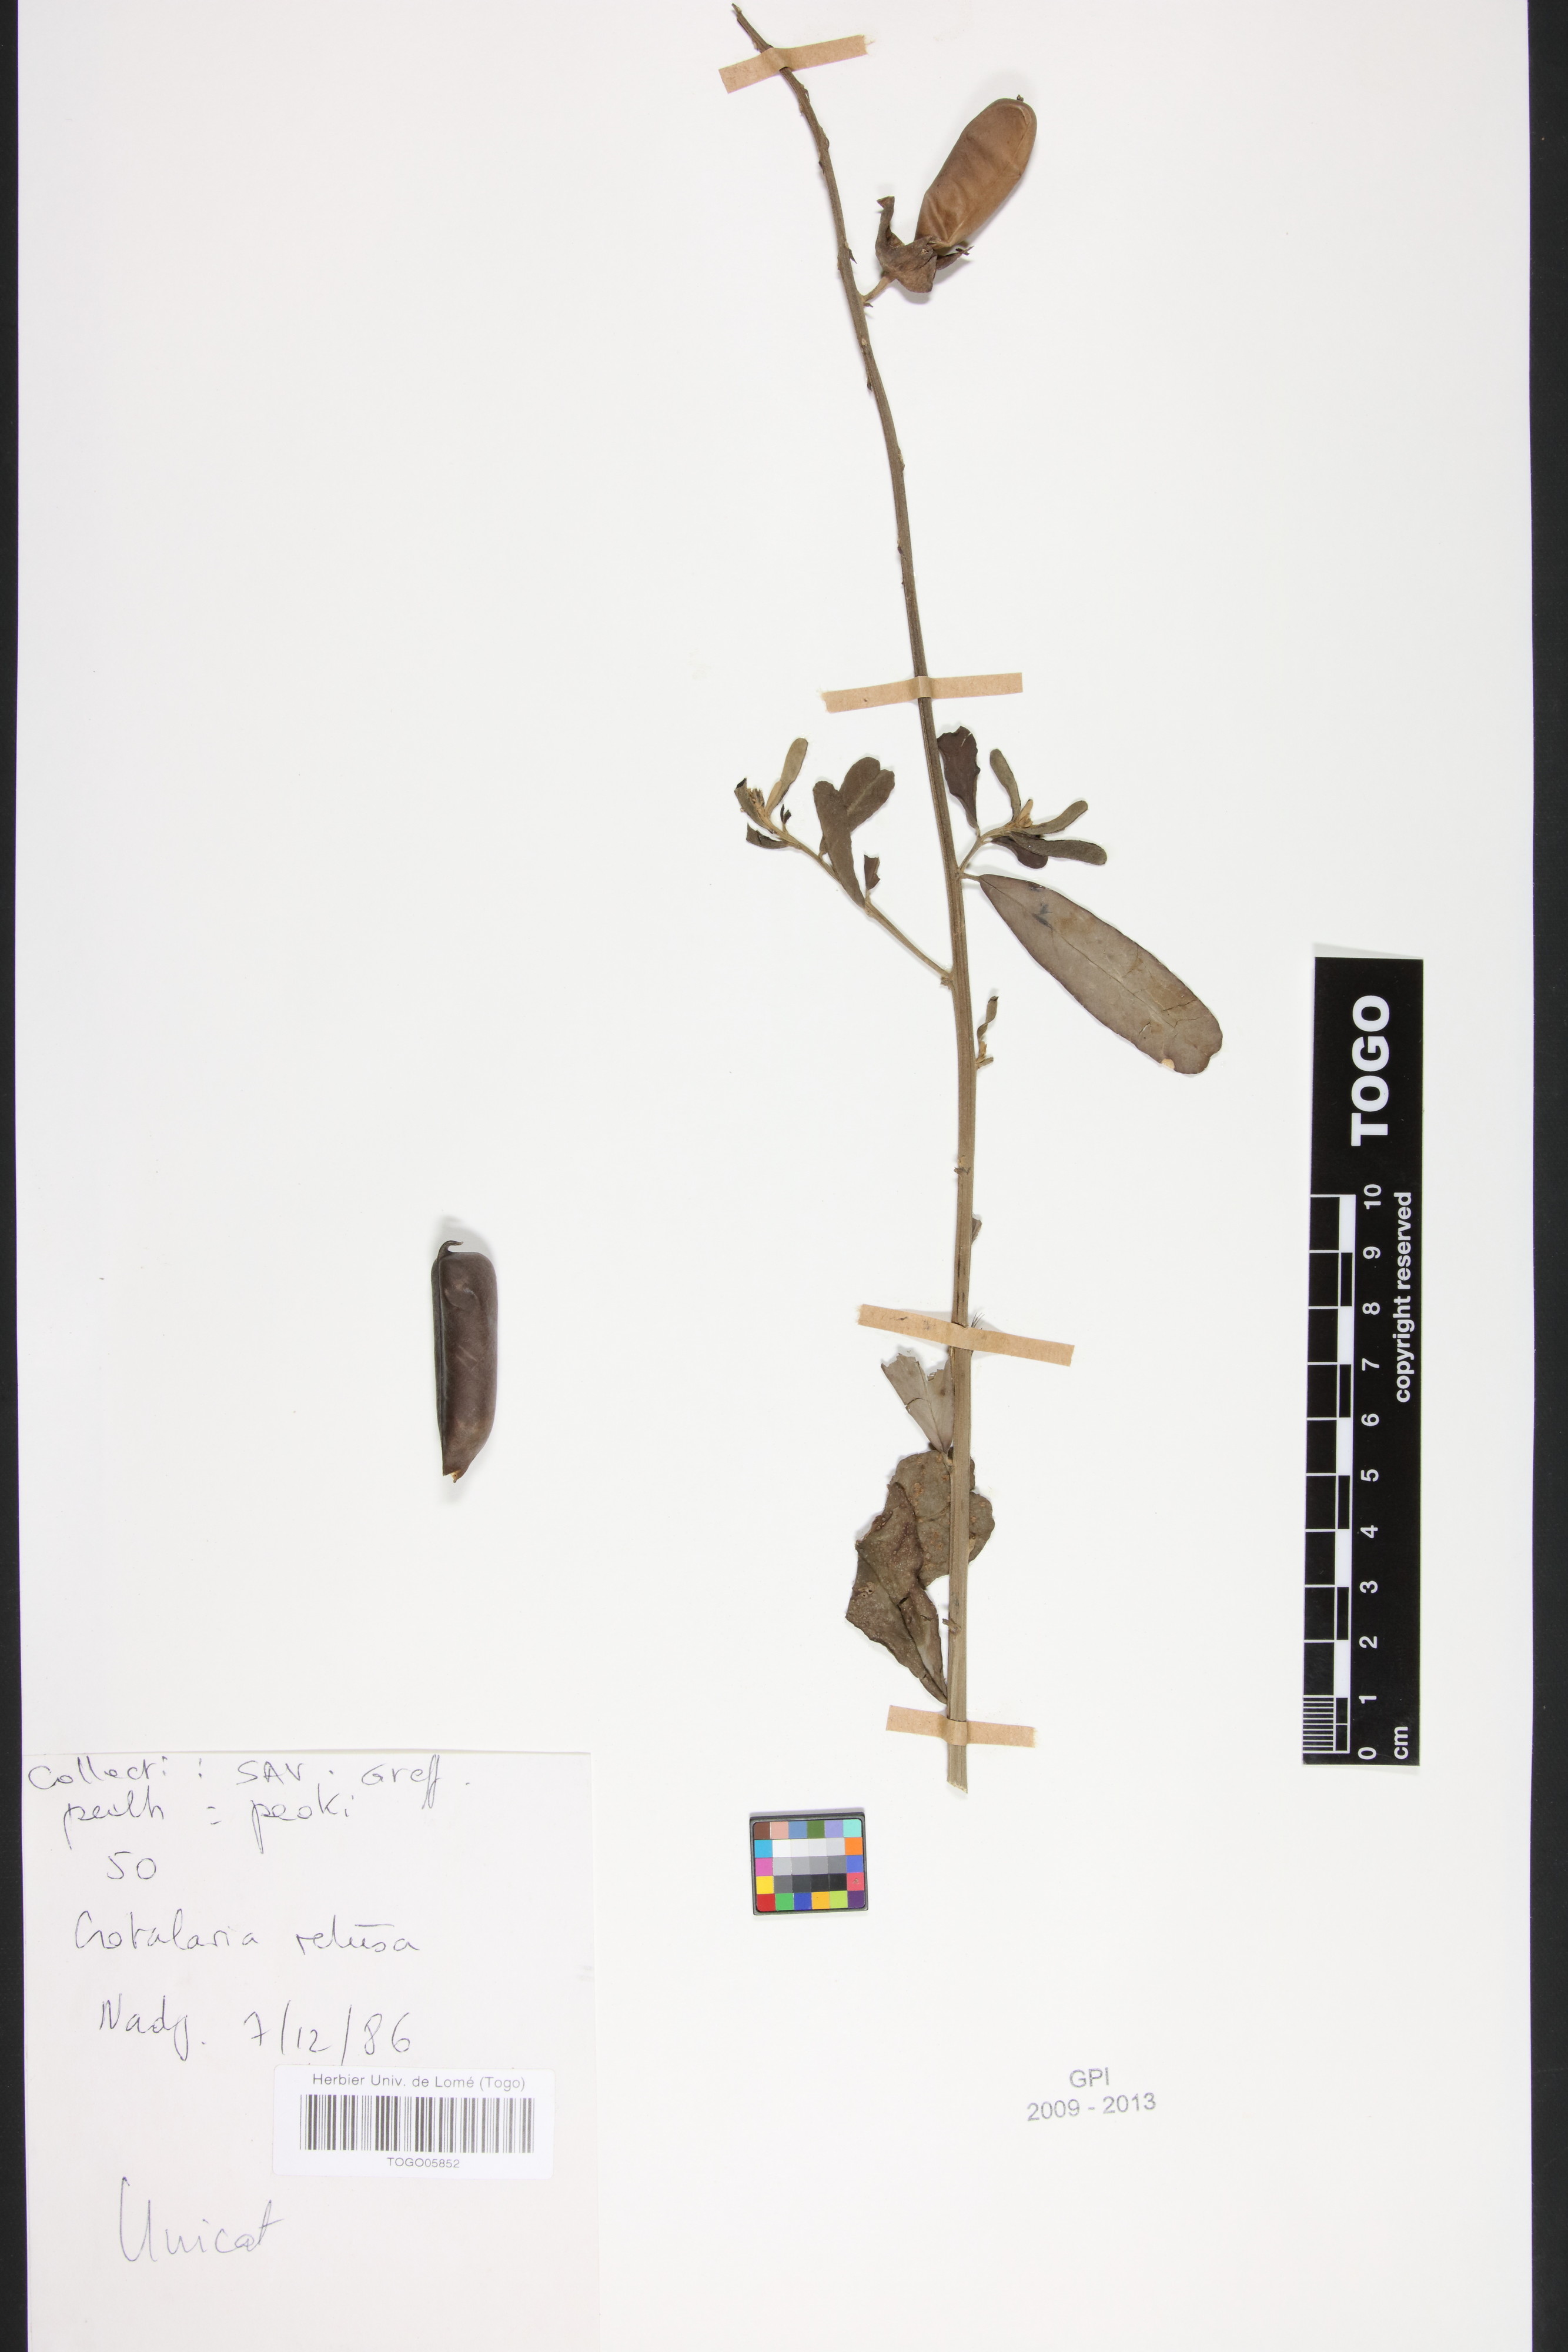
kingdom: Plantae
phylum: Tracheophyta
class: Magnoliopsida
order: Fabales
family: Fabaceae
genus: Crotalaria
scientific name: Crotalaria retusa
